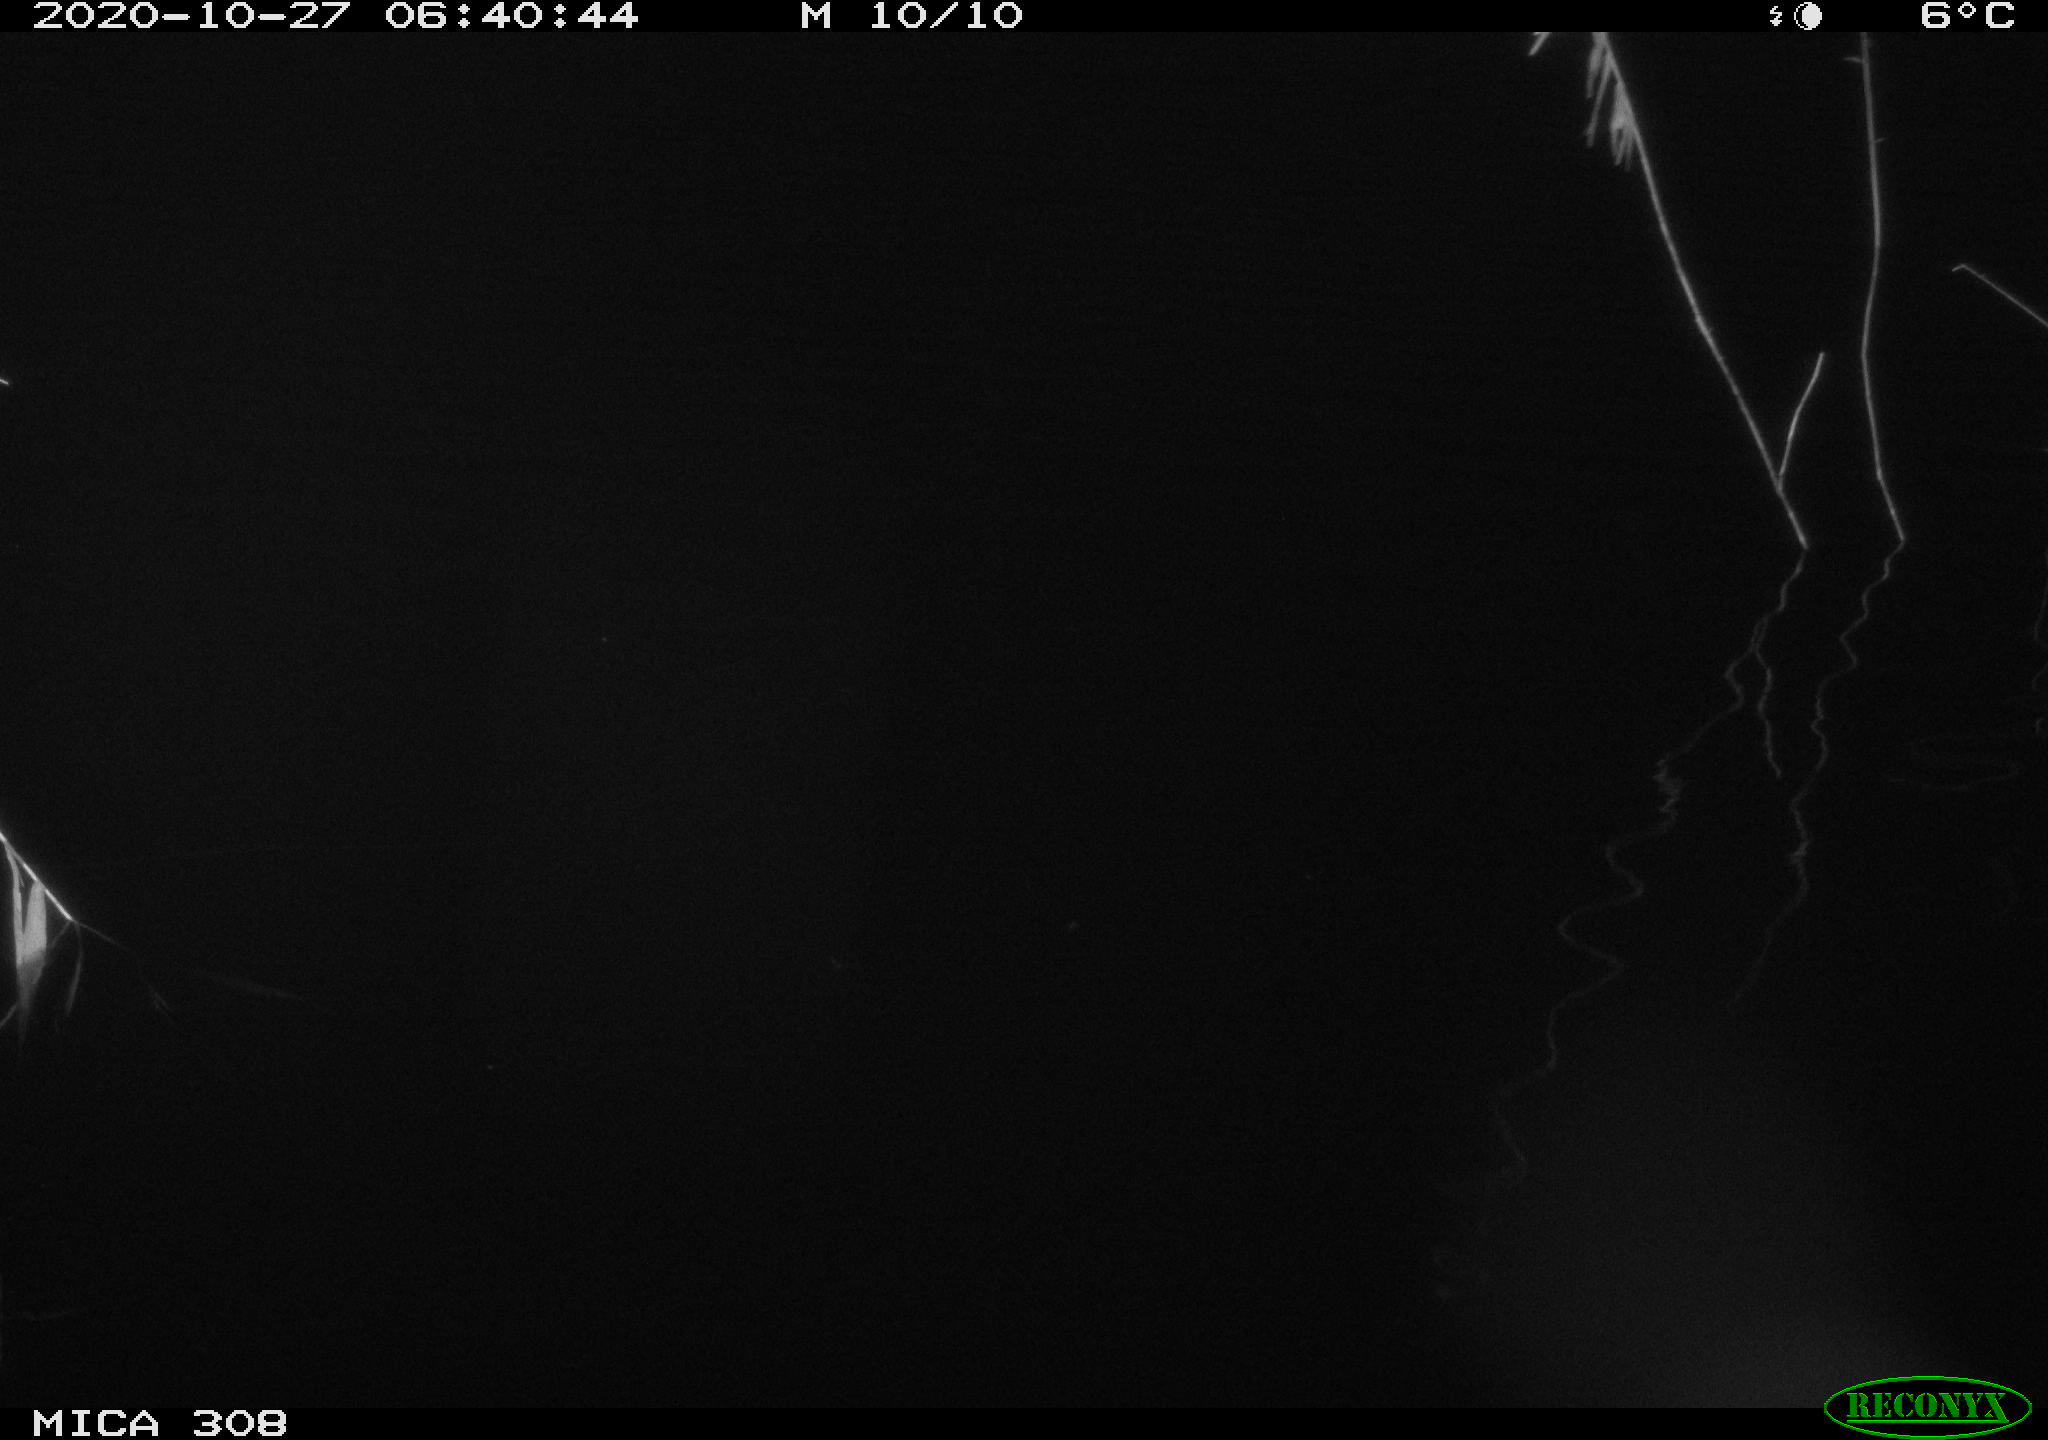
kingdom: Animalia
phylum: Chordata
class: Aves
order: Gruiformes
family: Rallidae
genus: Fulica
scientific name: Fulica atra
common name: Eurasian coot
